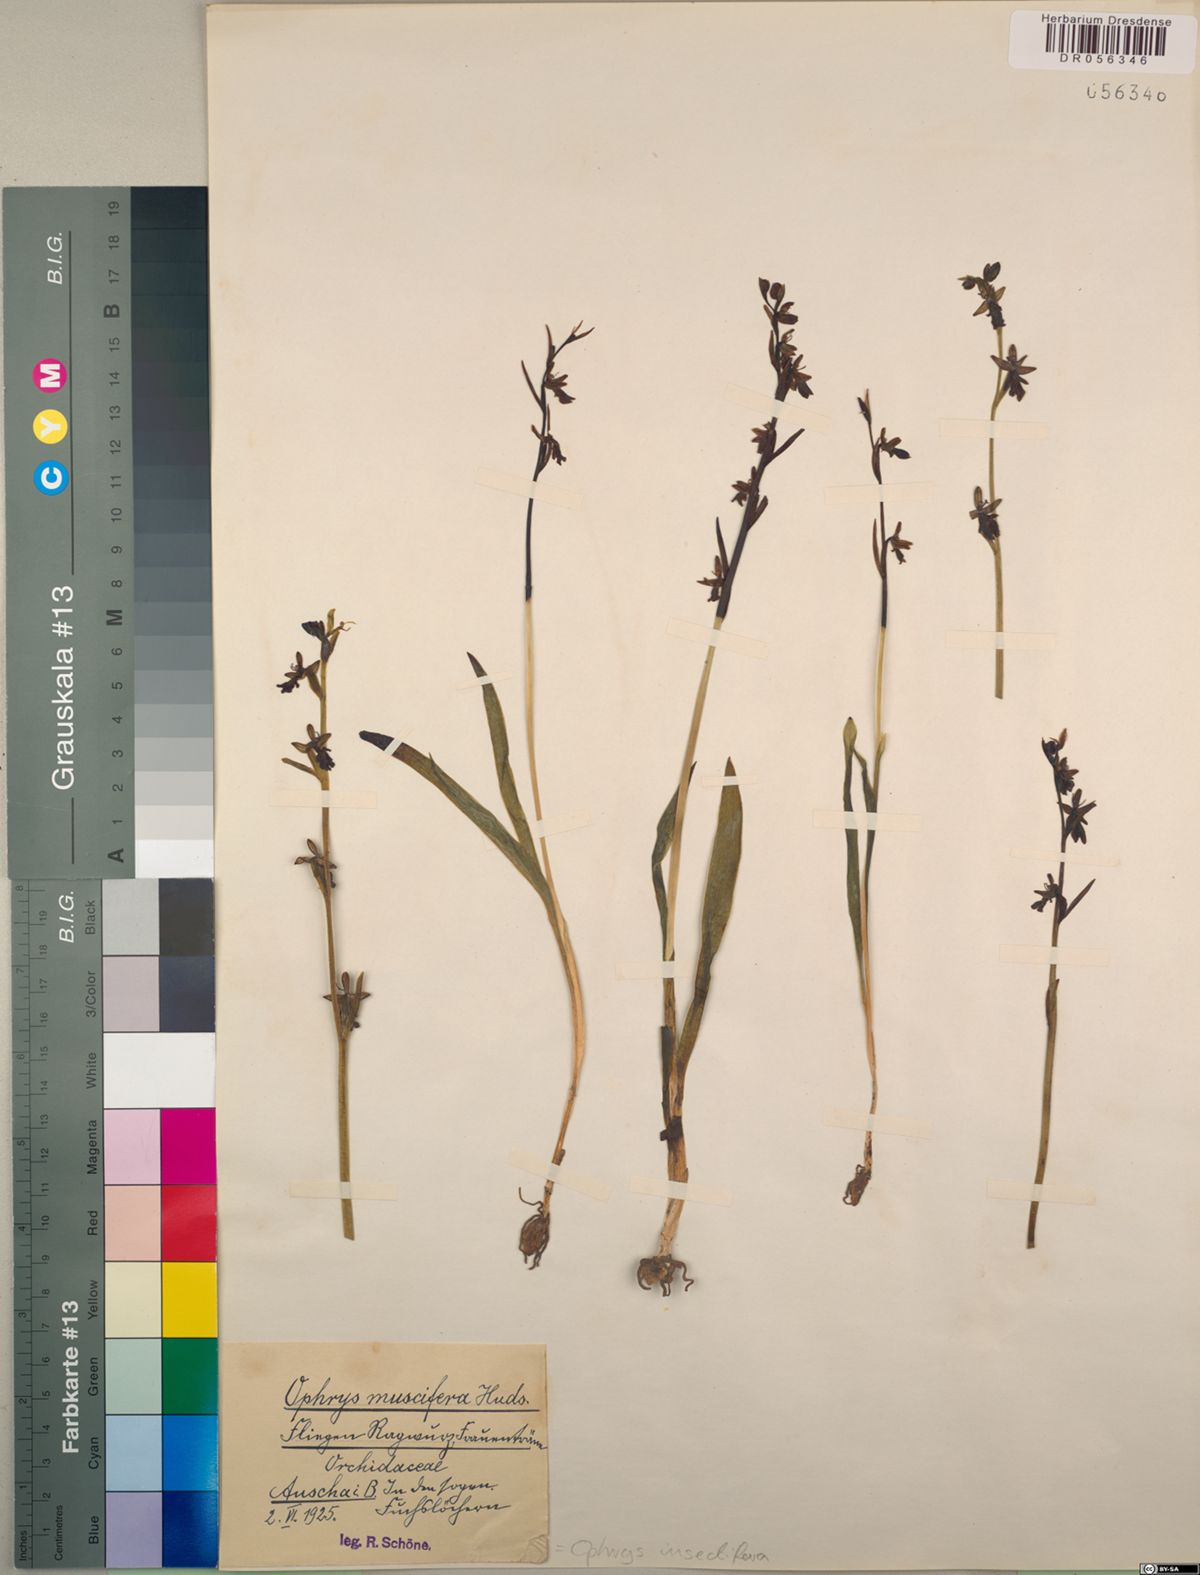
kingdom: Plantae
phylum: Tracheophyta
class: Liliopsida
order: Asparagales
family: Orchidaceae
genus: Ophrys
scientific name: Ophrys insectifera
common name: Fly orchid
